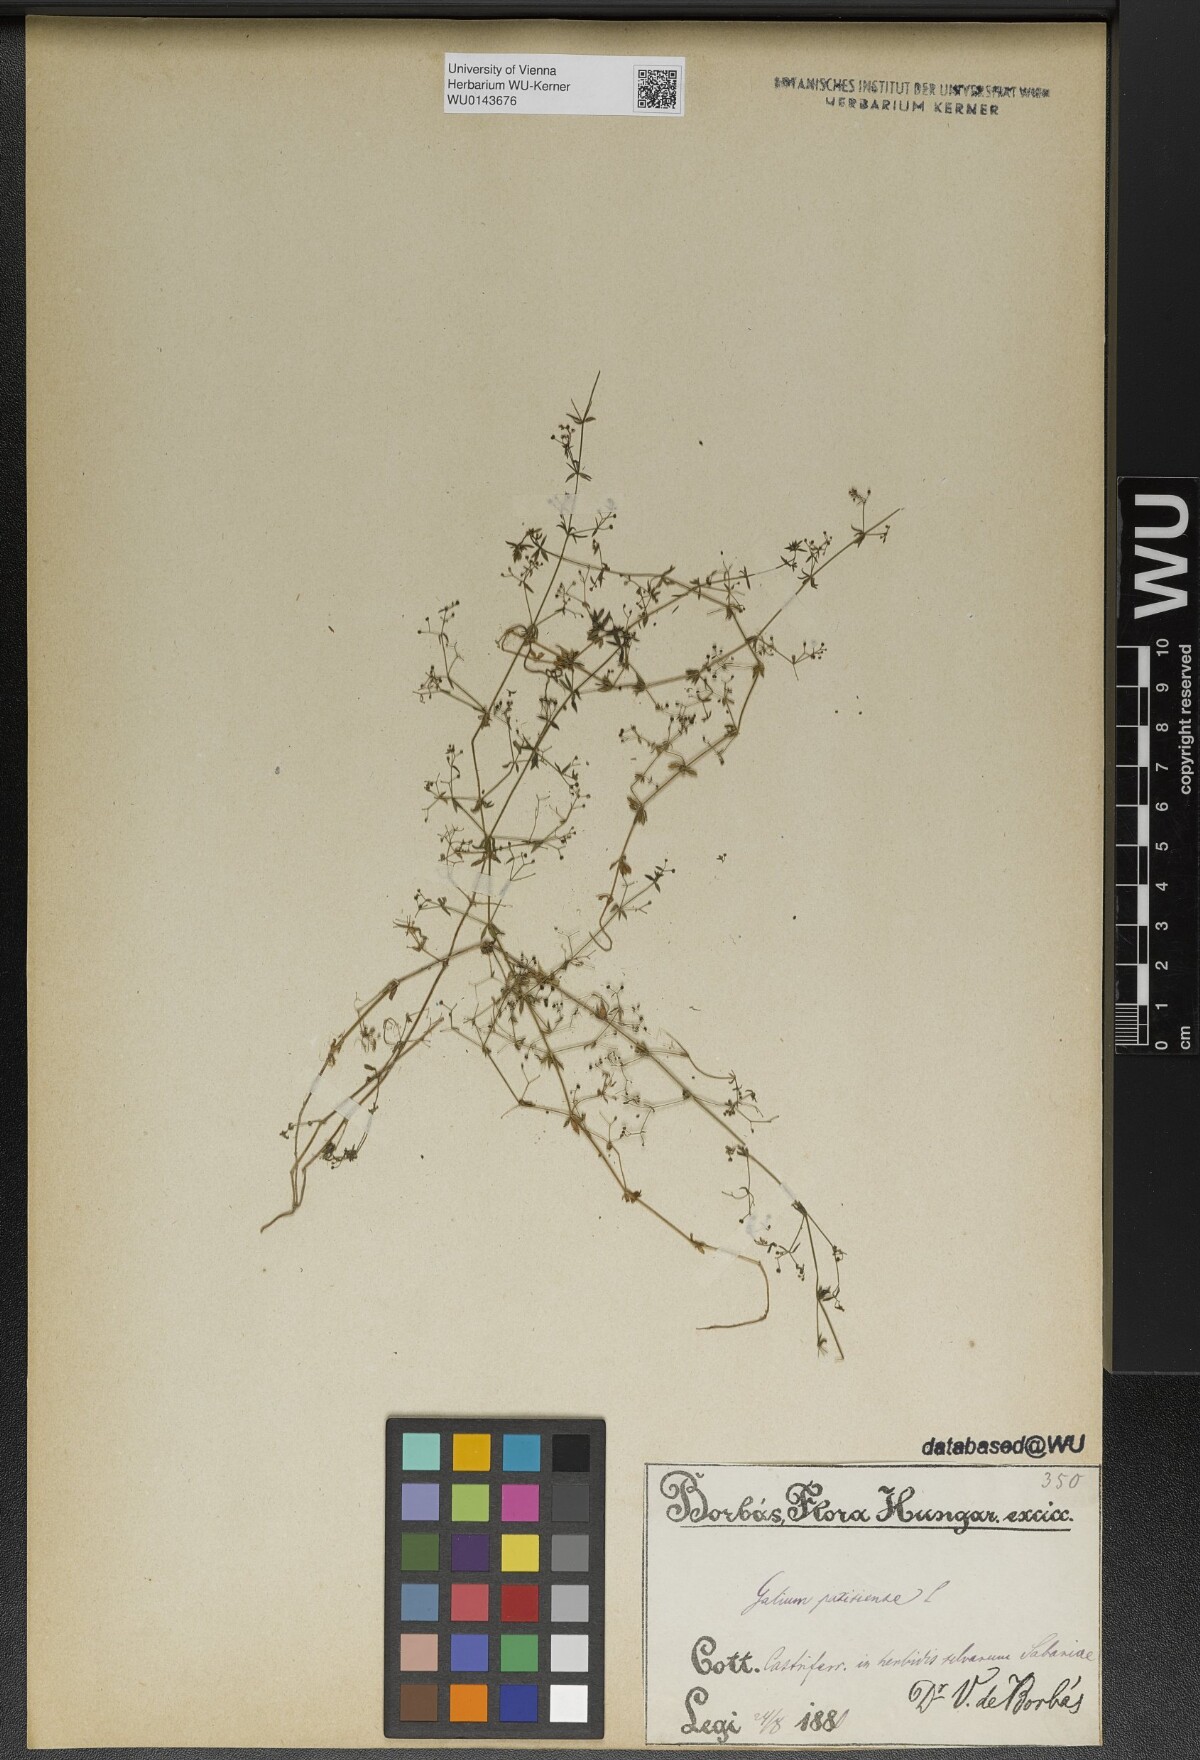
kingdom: Plantae
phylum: Tracheophyta
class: Magnoliopsida
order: Gentianales
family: Rubiaceae
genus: Galium
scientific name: Galium parisiense
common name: Wall bedstraw
